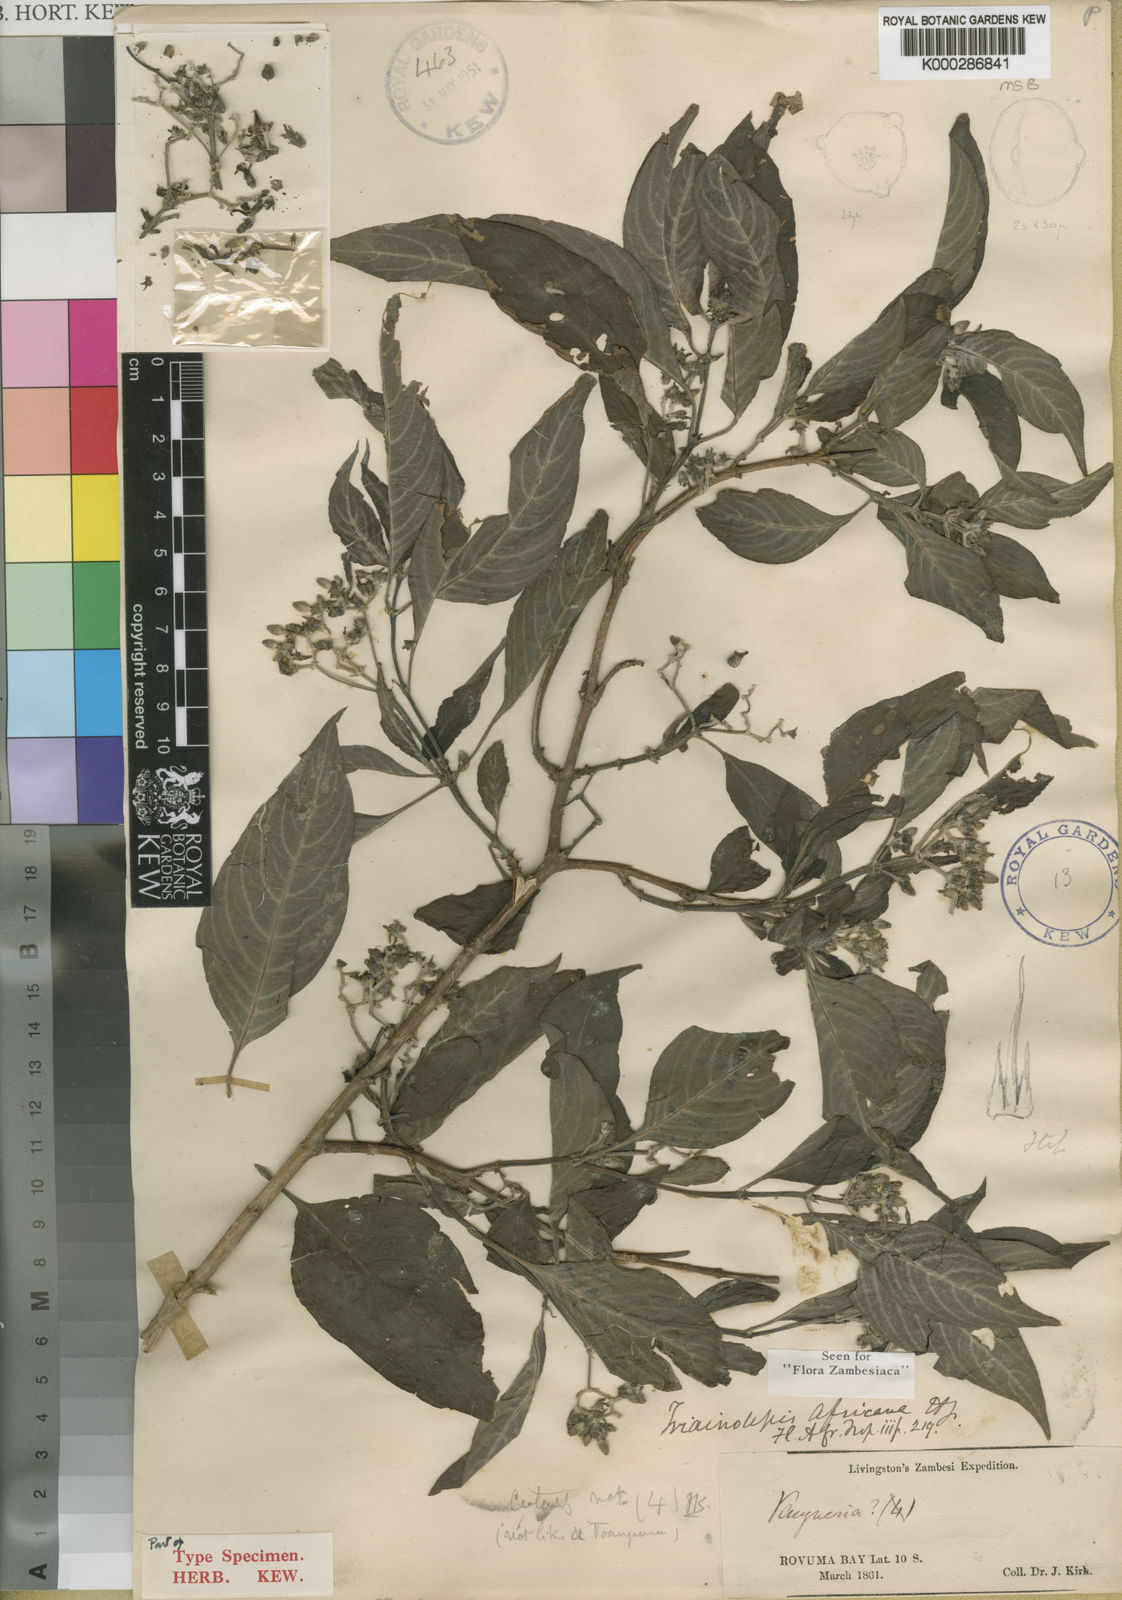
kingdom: Plantae
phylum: Tracheophyta
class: Magnoliopsida
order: Gentianales
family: Rubiaceae
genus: Triainolepis
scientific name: Triainolepis africana
